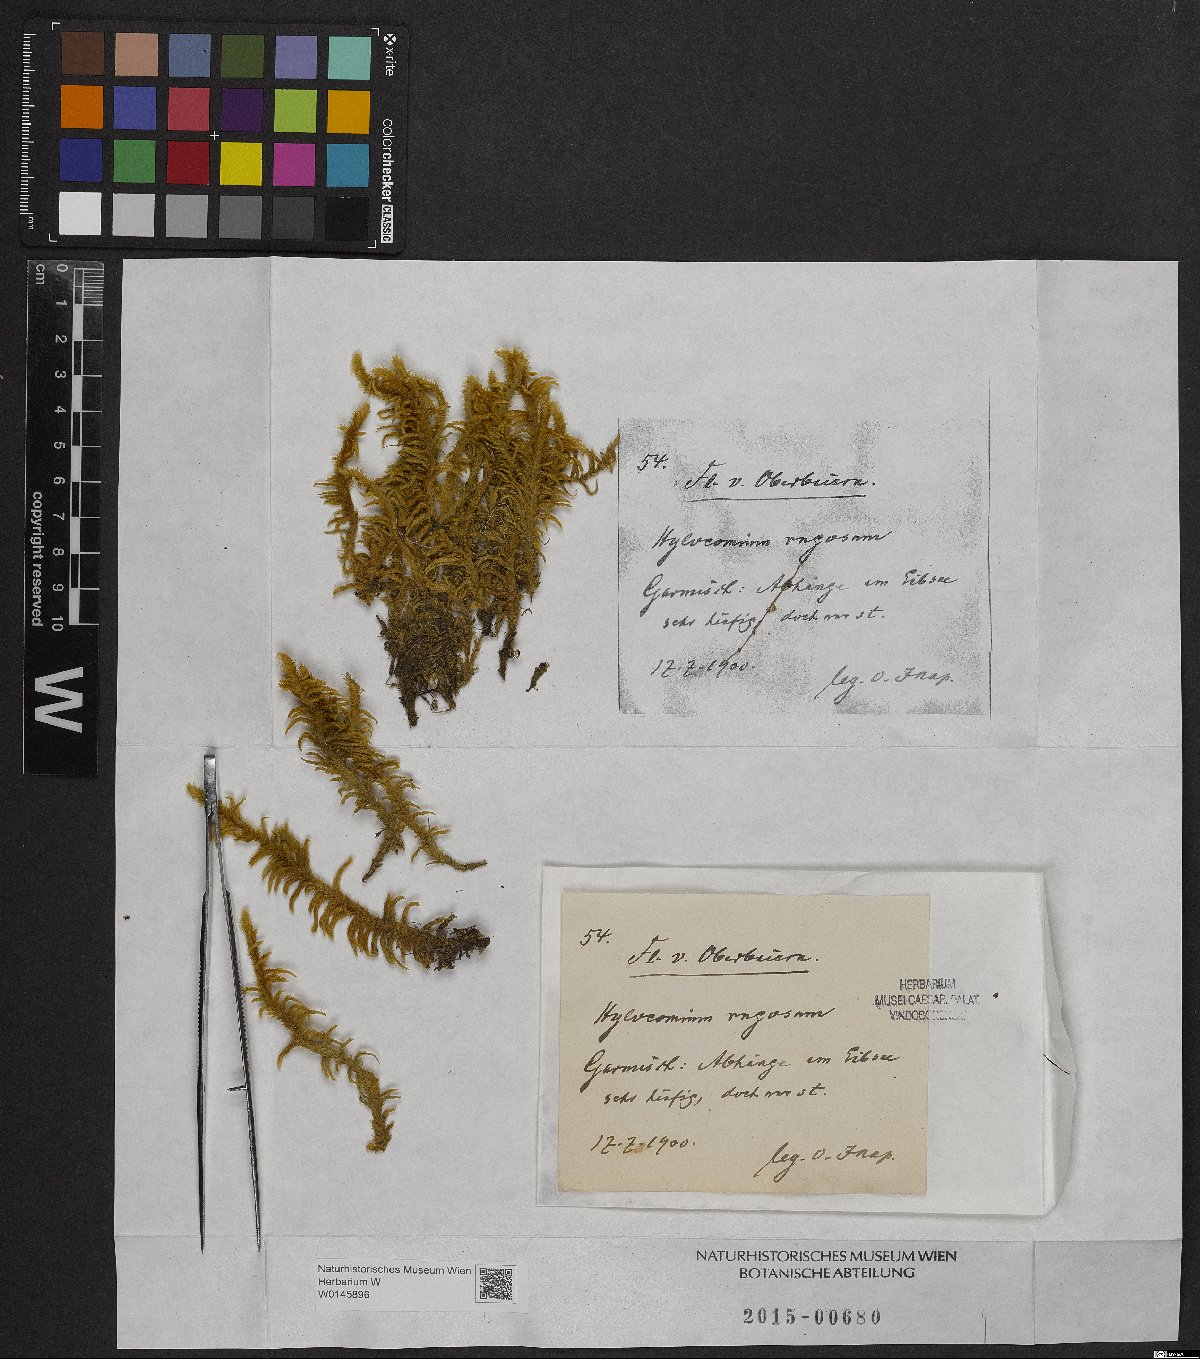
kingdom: Plantae
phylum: Bryophyta
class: Bryopsida
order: Hypnales
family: Rhytidiaceae
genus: Rhytidium
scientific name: Rhytidium rugosum
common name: Wrinkle-leaved moss
